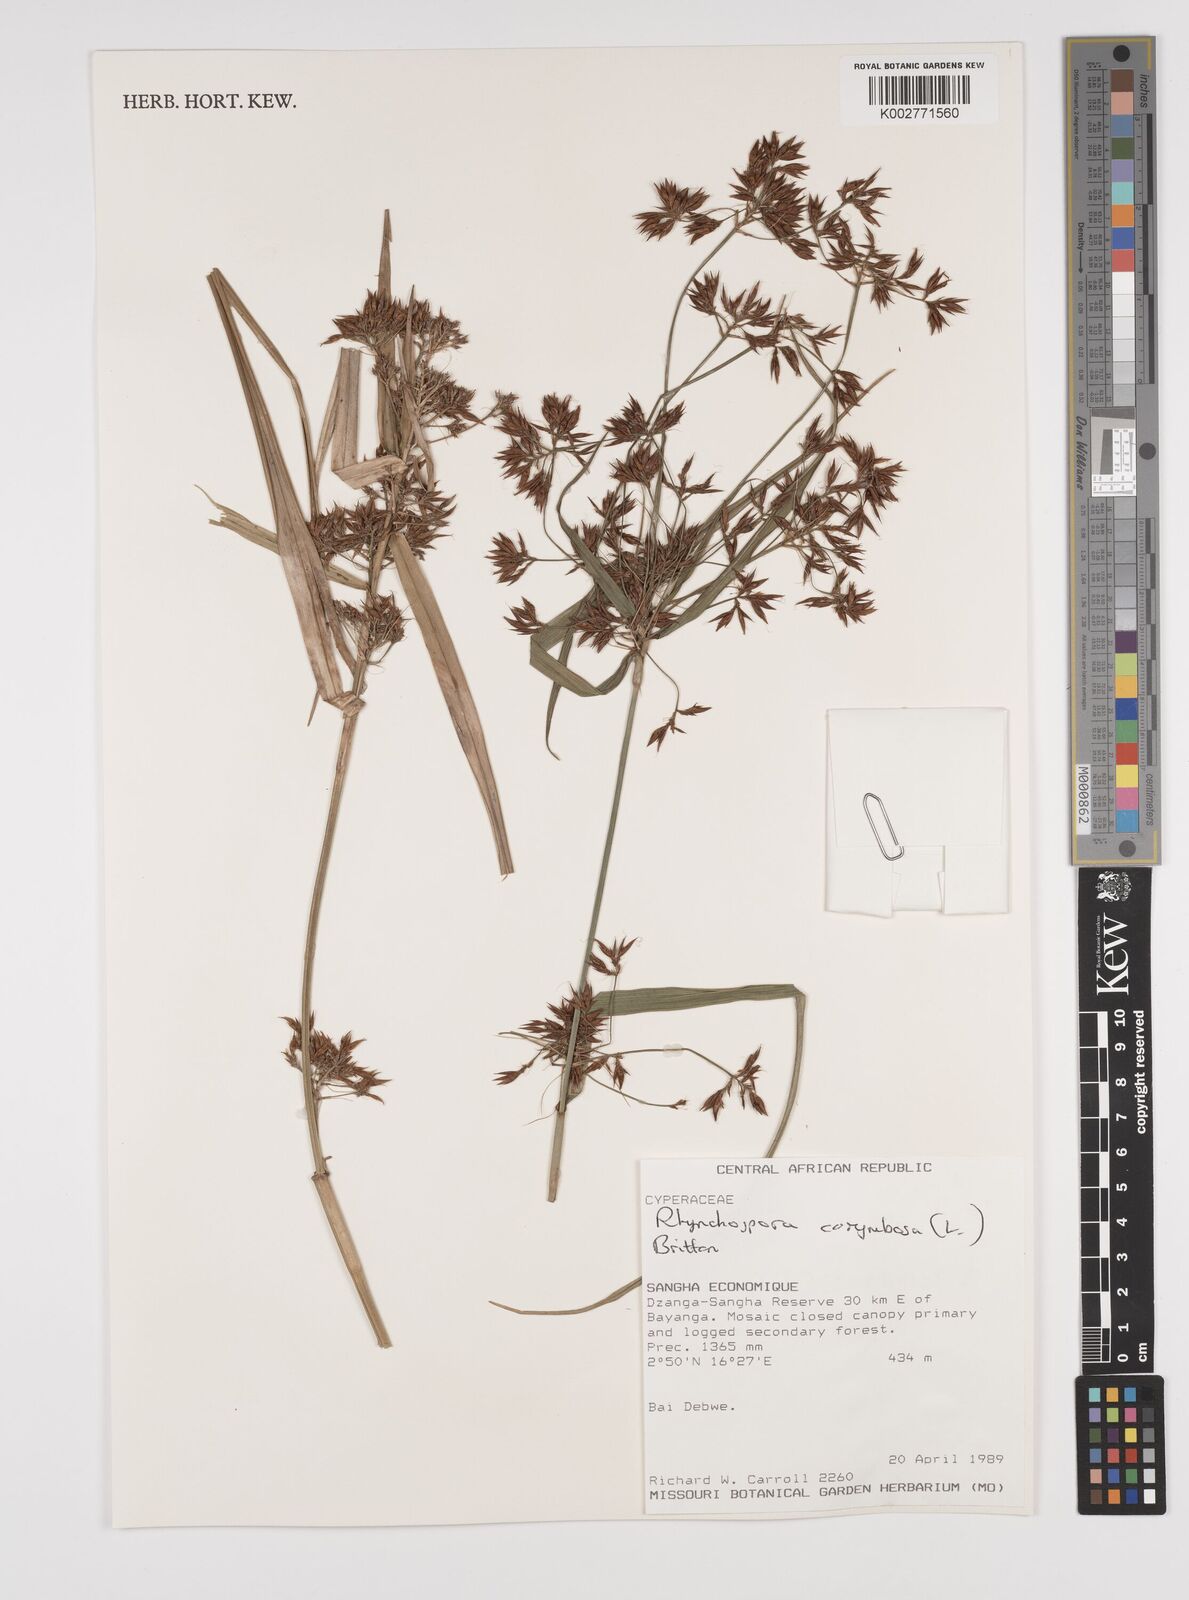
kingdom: Plantae
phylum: Tracheophyta
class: Liliopsida
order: Poales
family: Cyperaceae
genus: Rhynchospora
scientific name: Rhynchospora corymbosa
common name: Golden beak sedge
